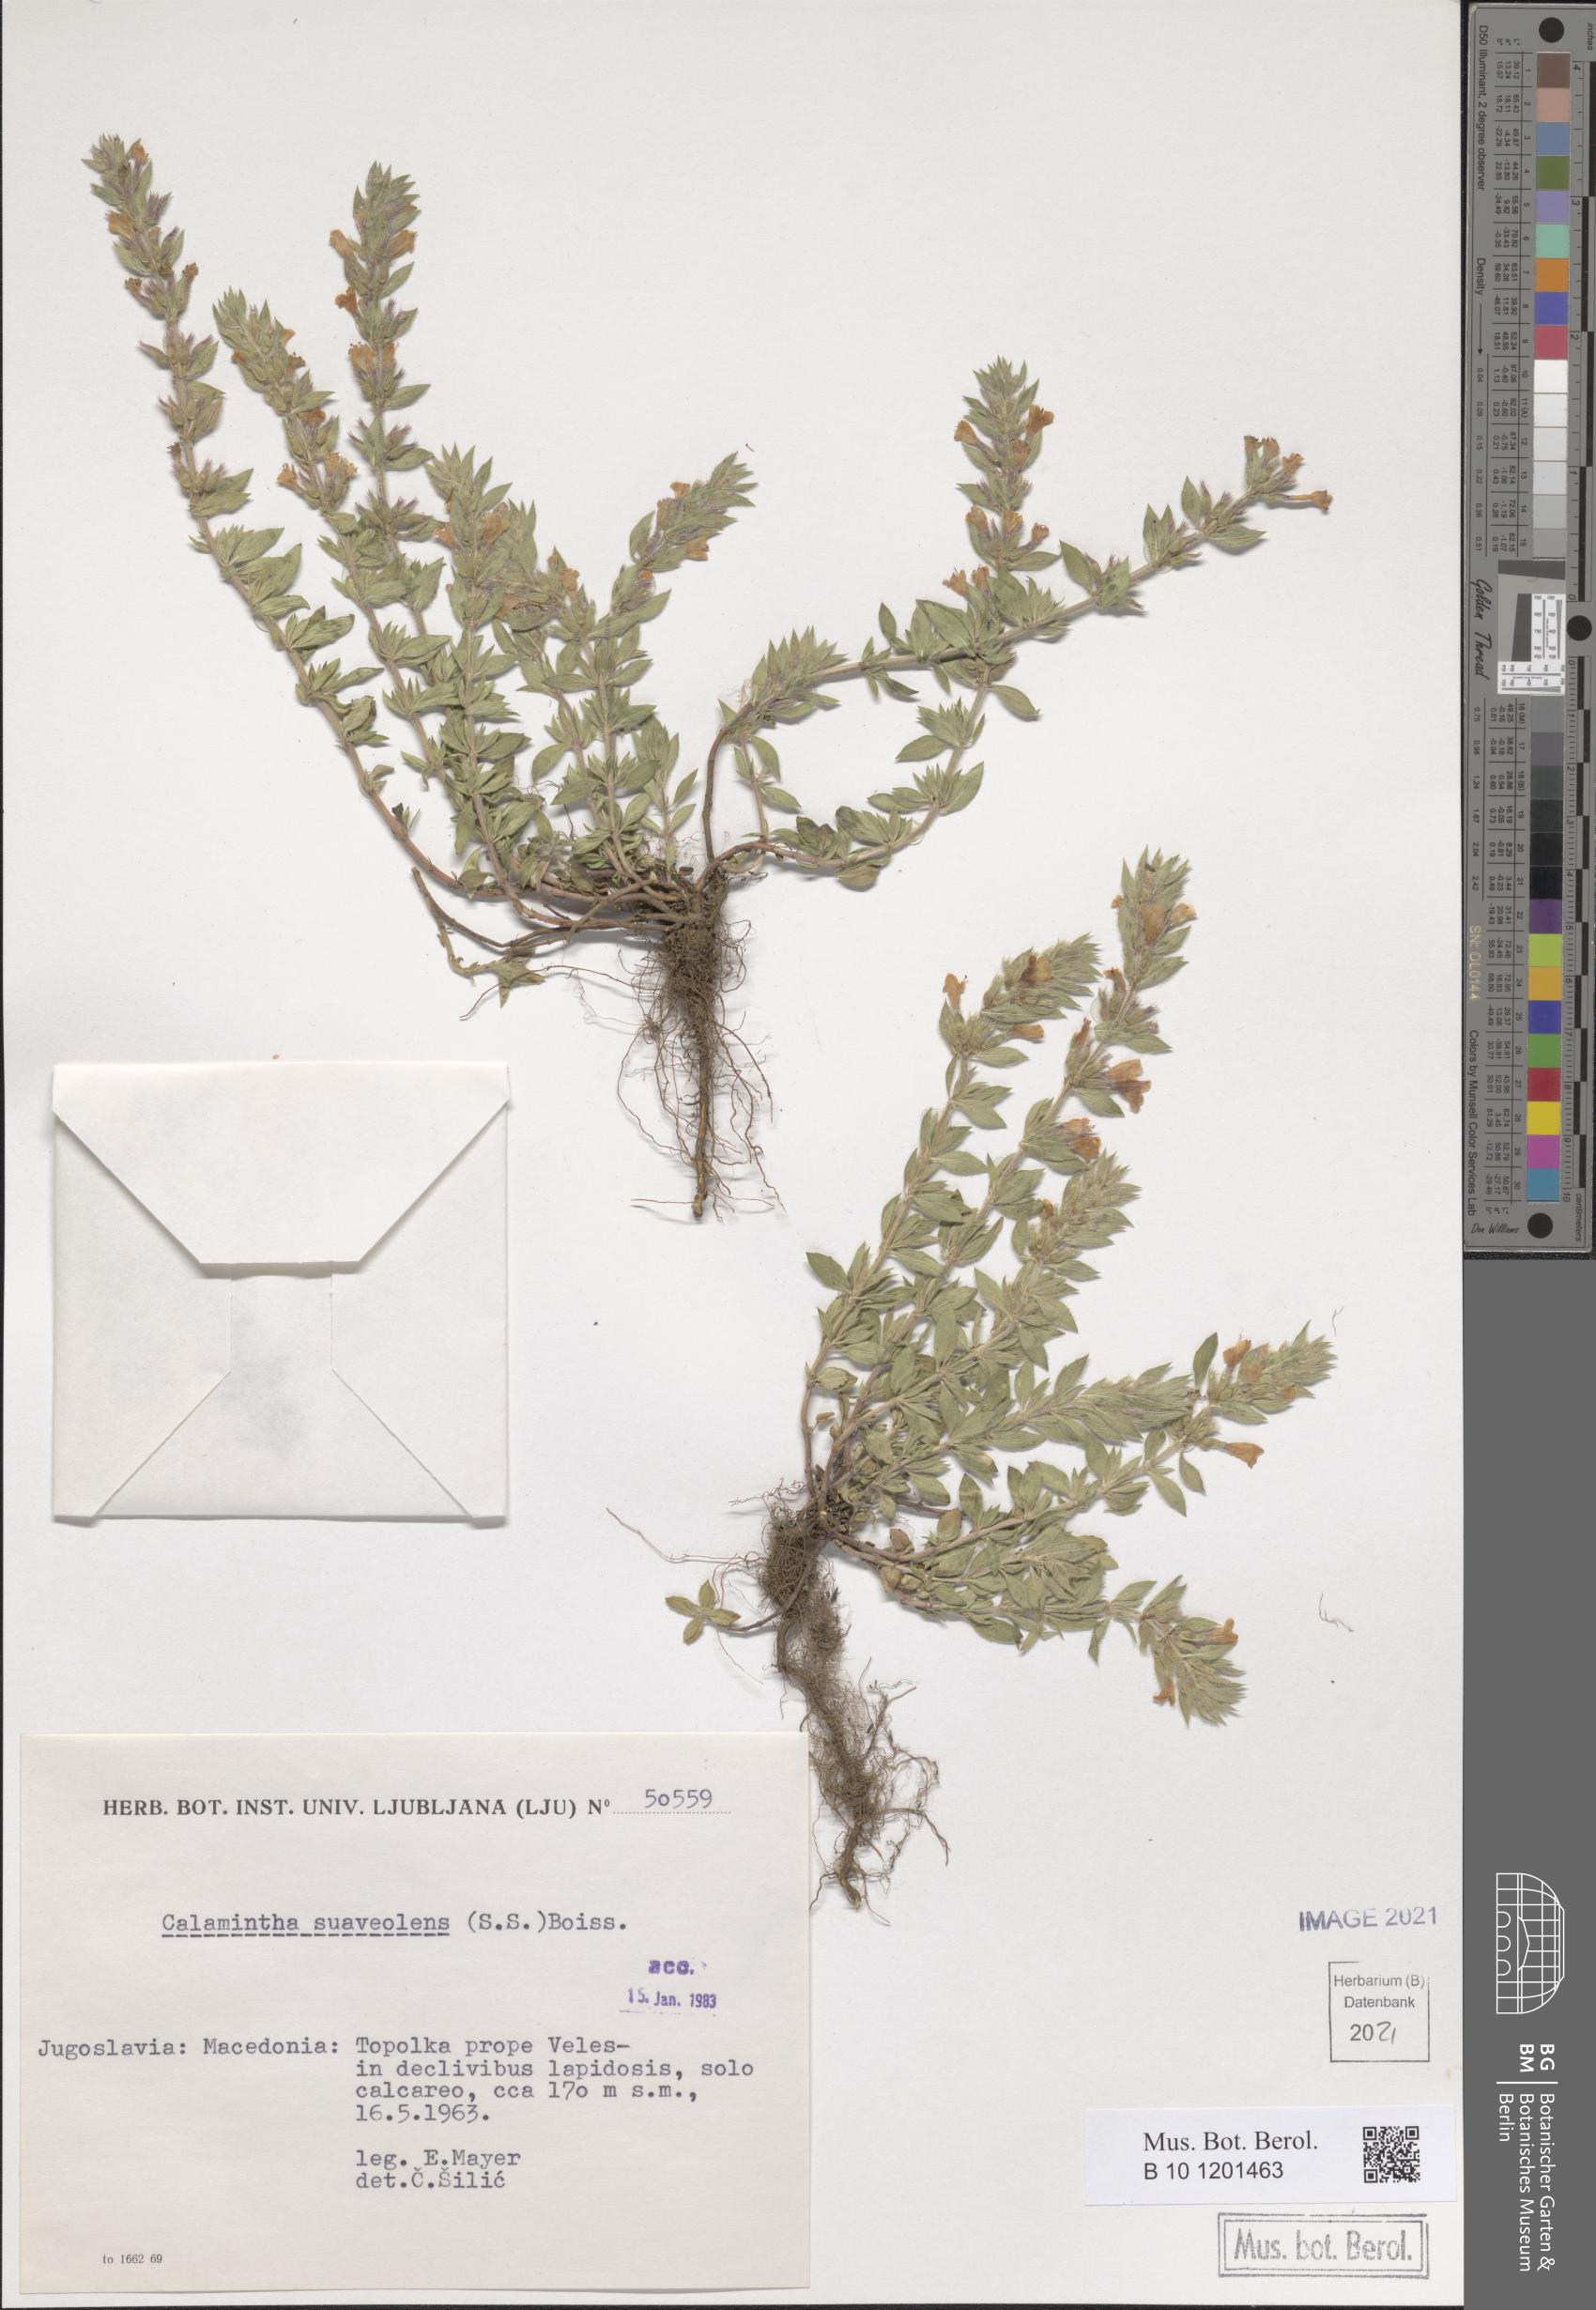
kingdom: Plantae
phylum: Tracheophyta
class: Magnoliopsida
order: Lamiales
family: Lamiaceae
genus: Clinopodium
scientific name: Clinopodium suaveolens
